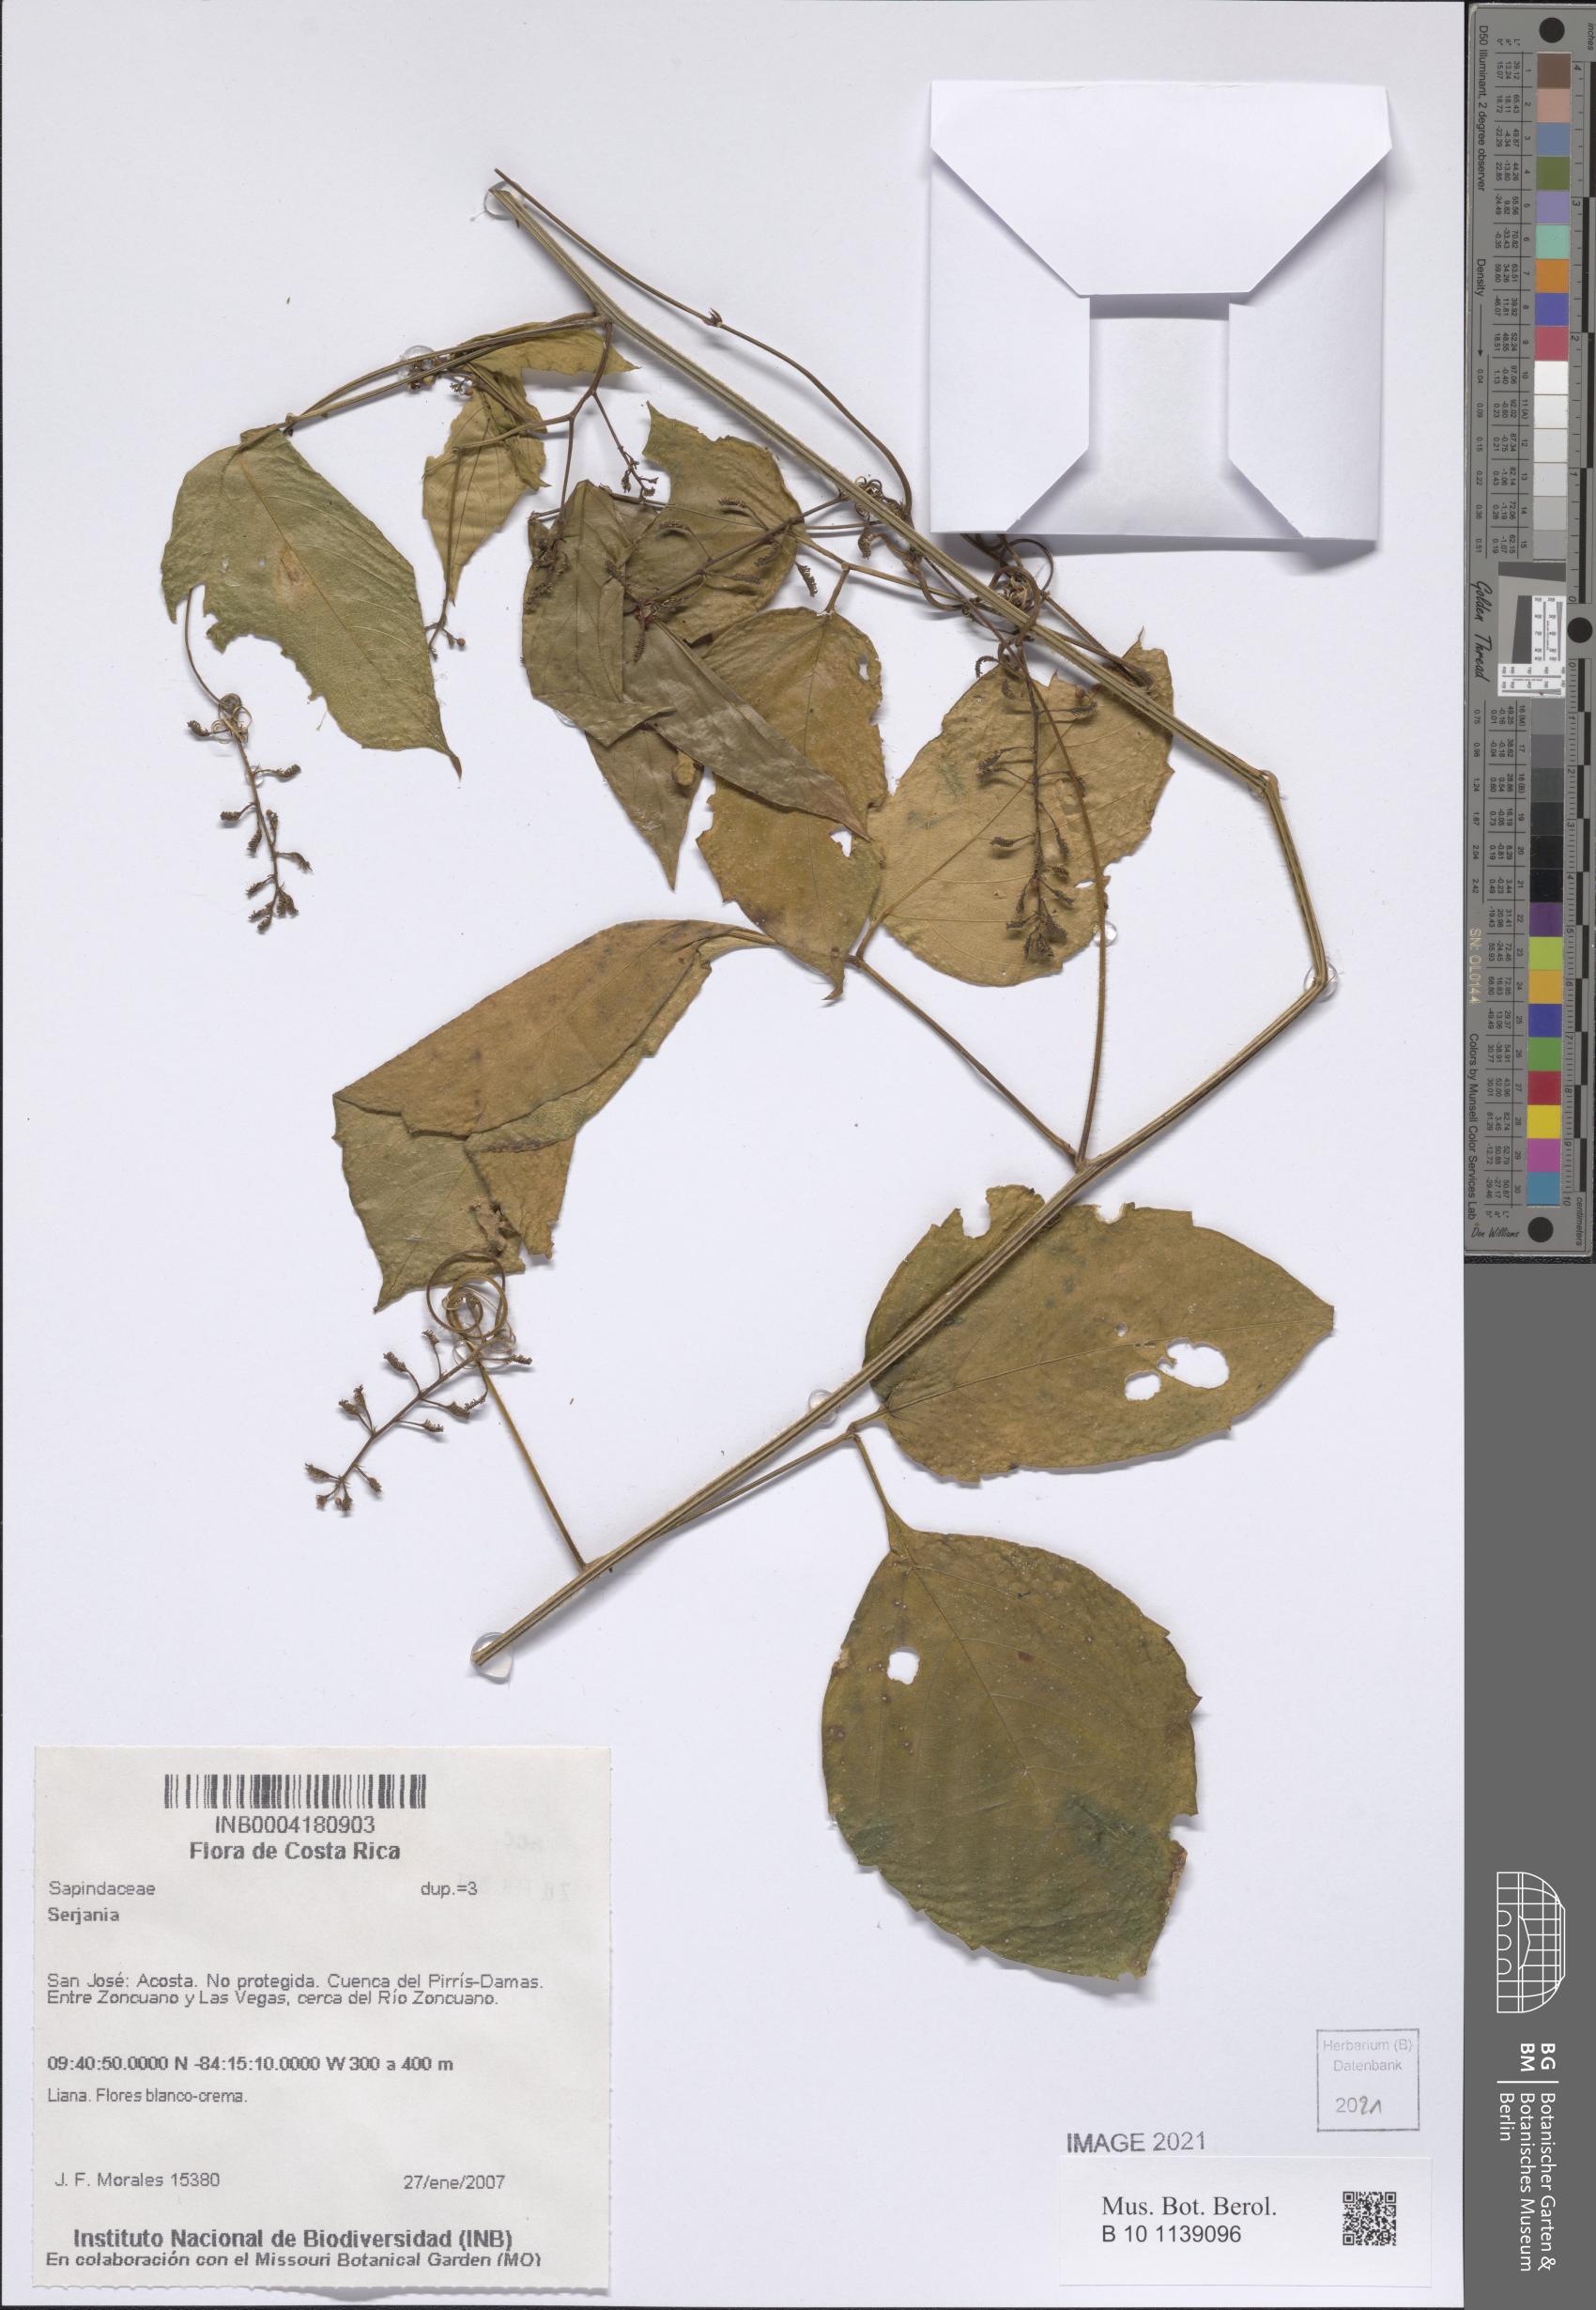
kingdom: Plantae
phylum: Tracheophyta
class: Magnoliopsida
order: Sapindales
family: Sapindaceae
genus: Serjania
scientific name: Serjania
